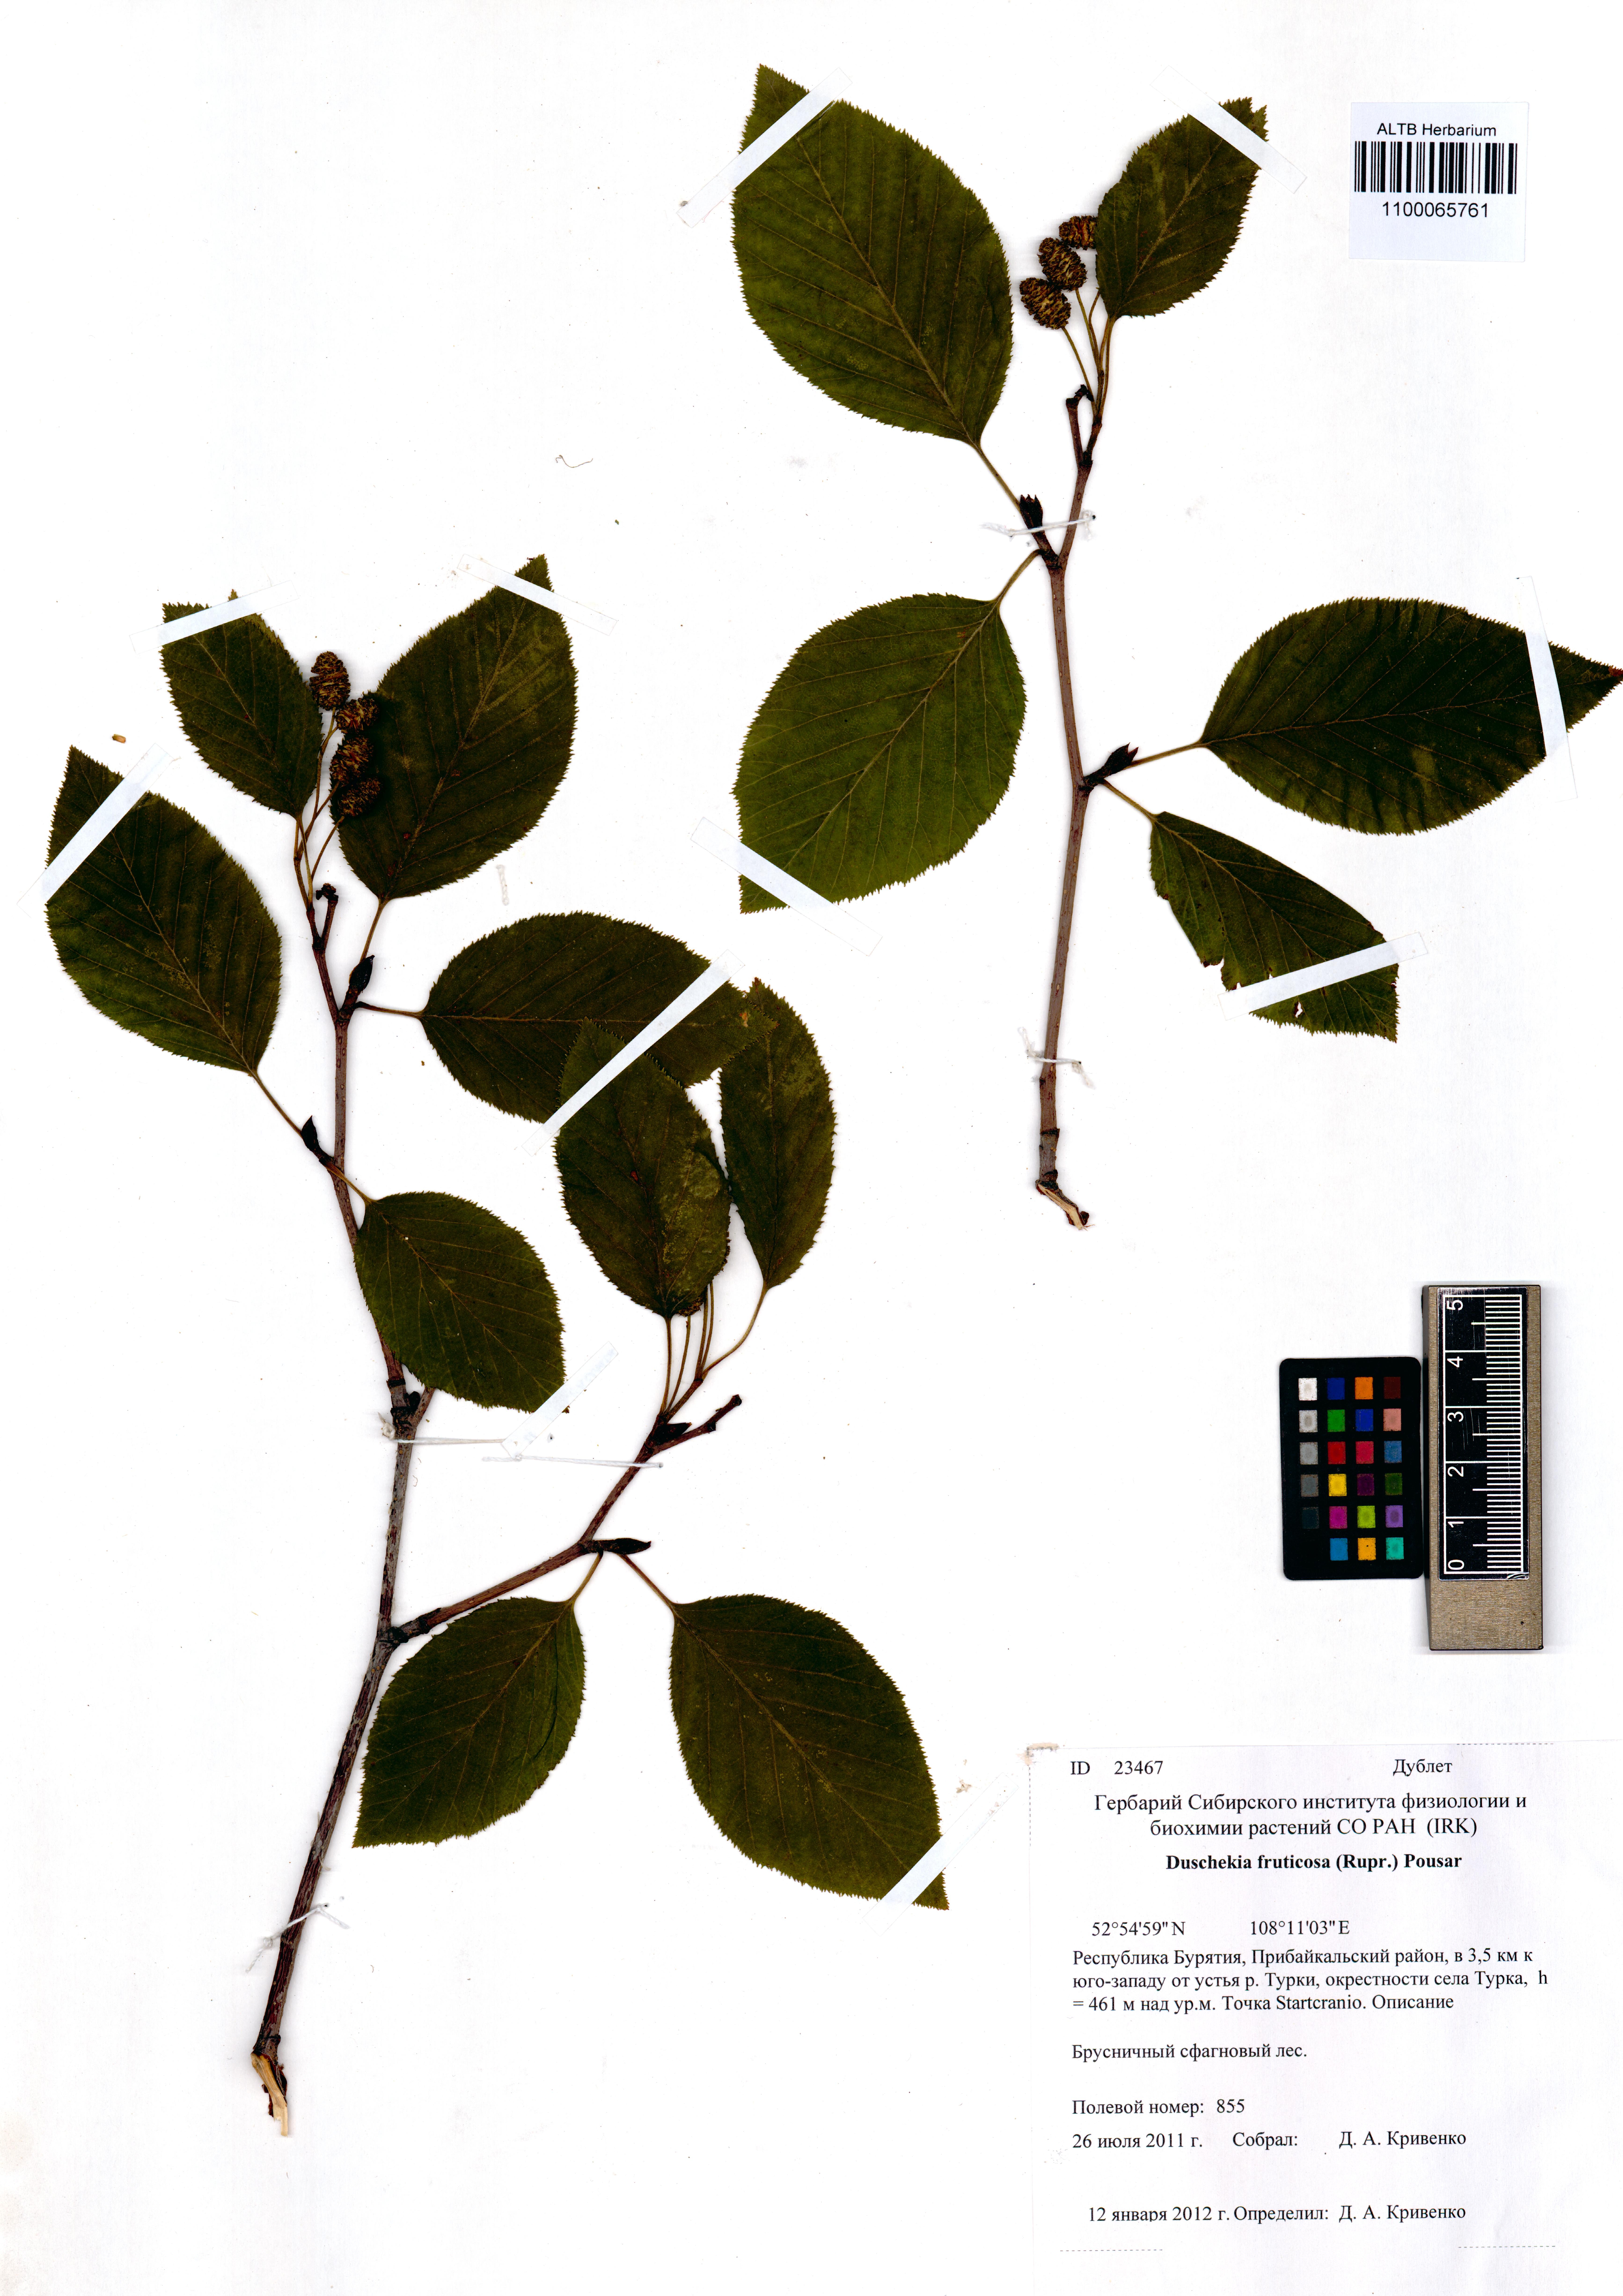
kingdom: Plantae
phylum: Tracheophyta
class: Magnoliopsida
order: Fagales
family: Betulaceae
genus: Alnus
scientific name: Alnus alnobetula
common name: Green alder
